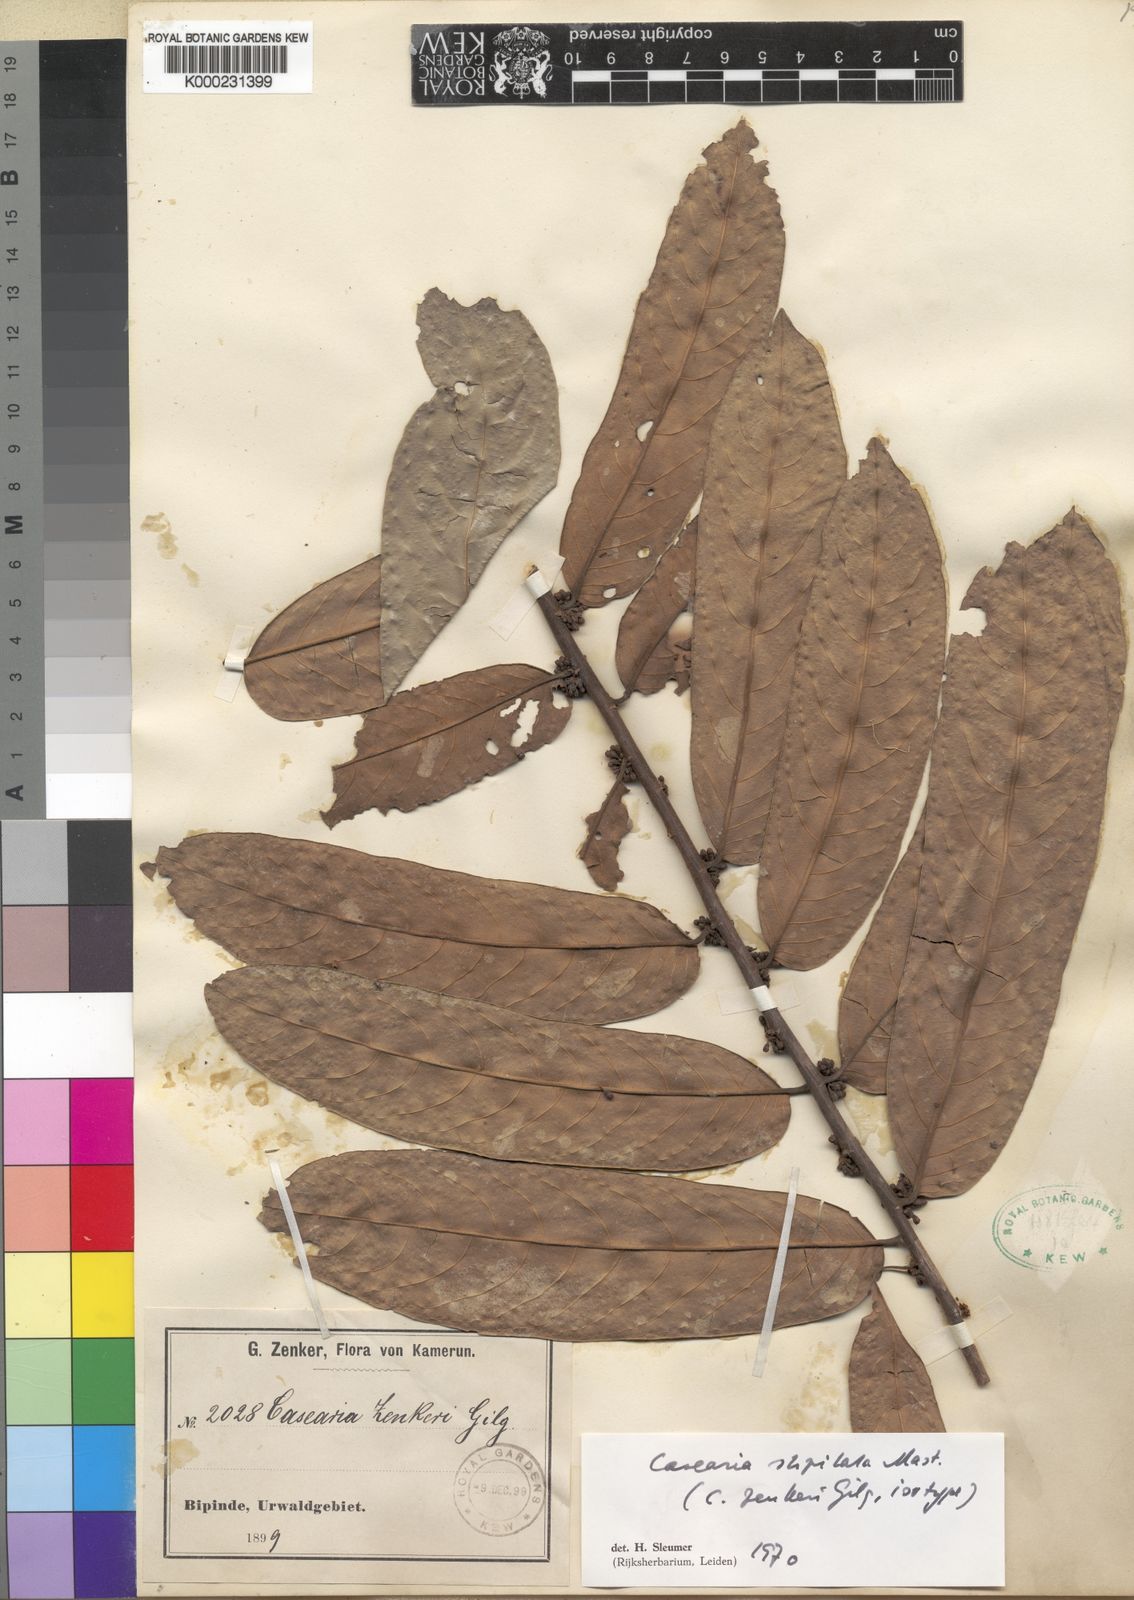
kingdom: Plantae
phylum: Tracheophyta
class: Magnoliopsida
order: Malpighiales
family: Salicaceae
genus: Casearia
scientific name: Casearia stipitata
